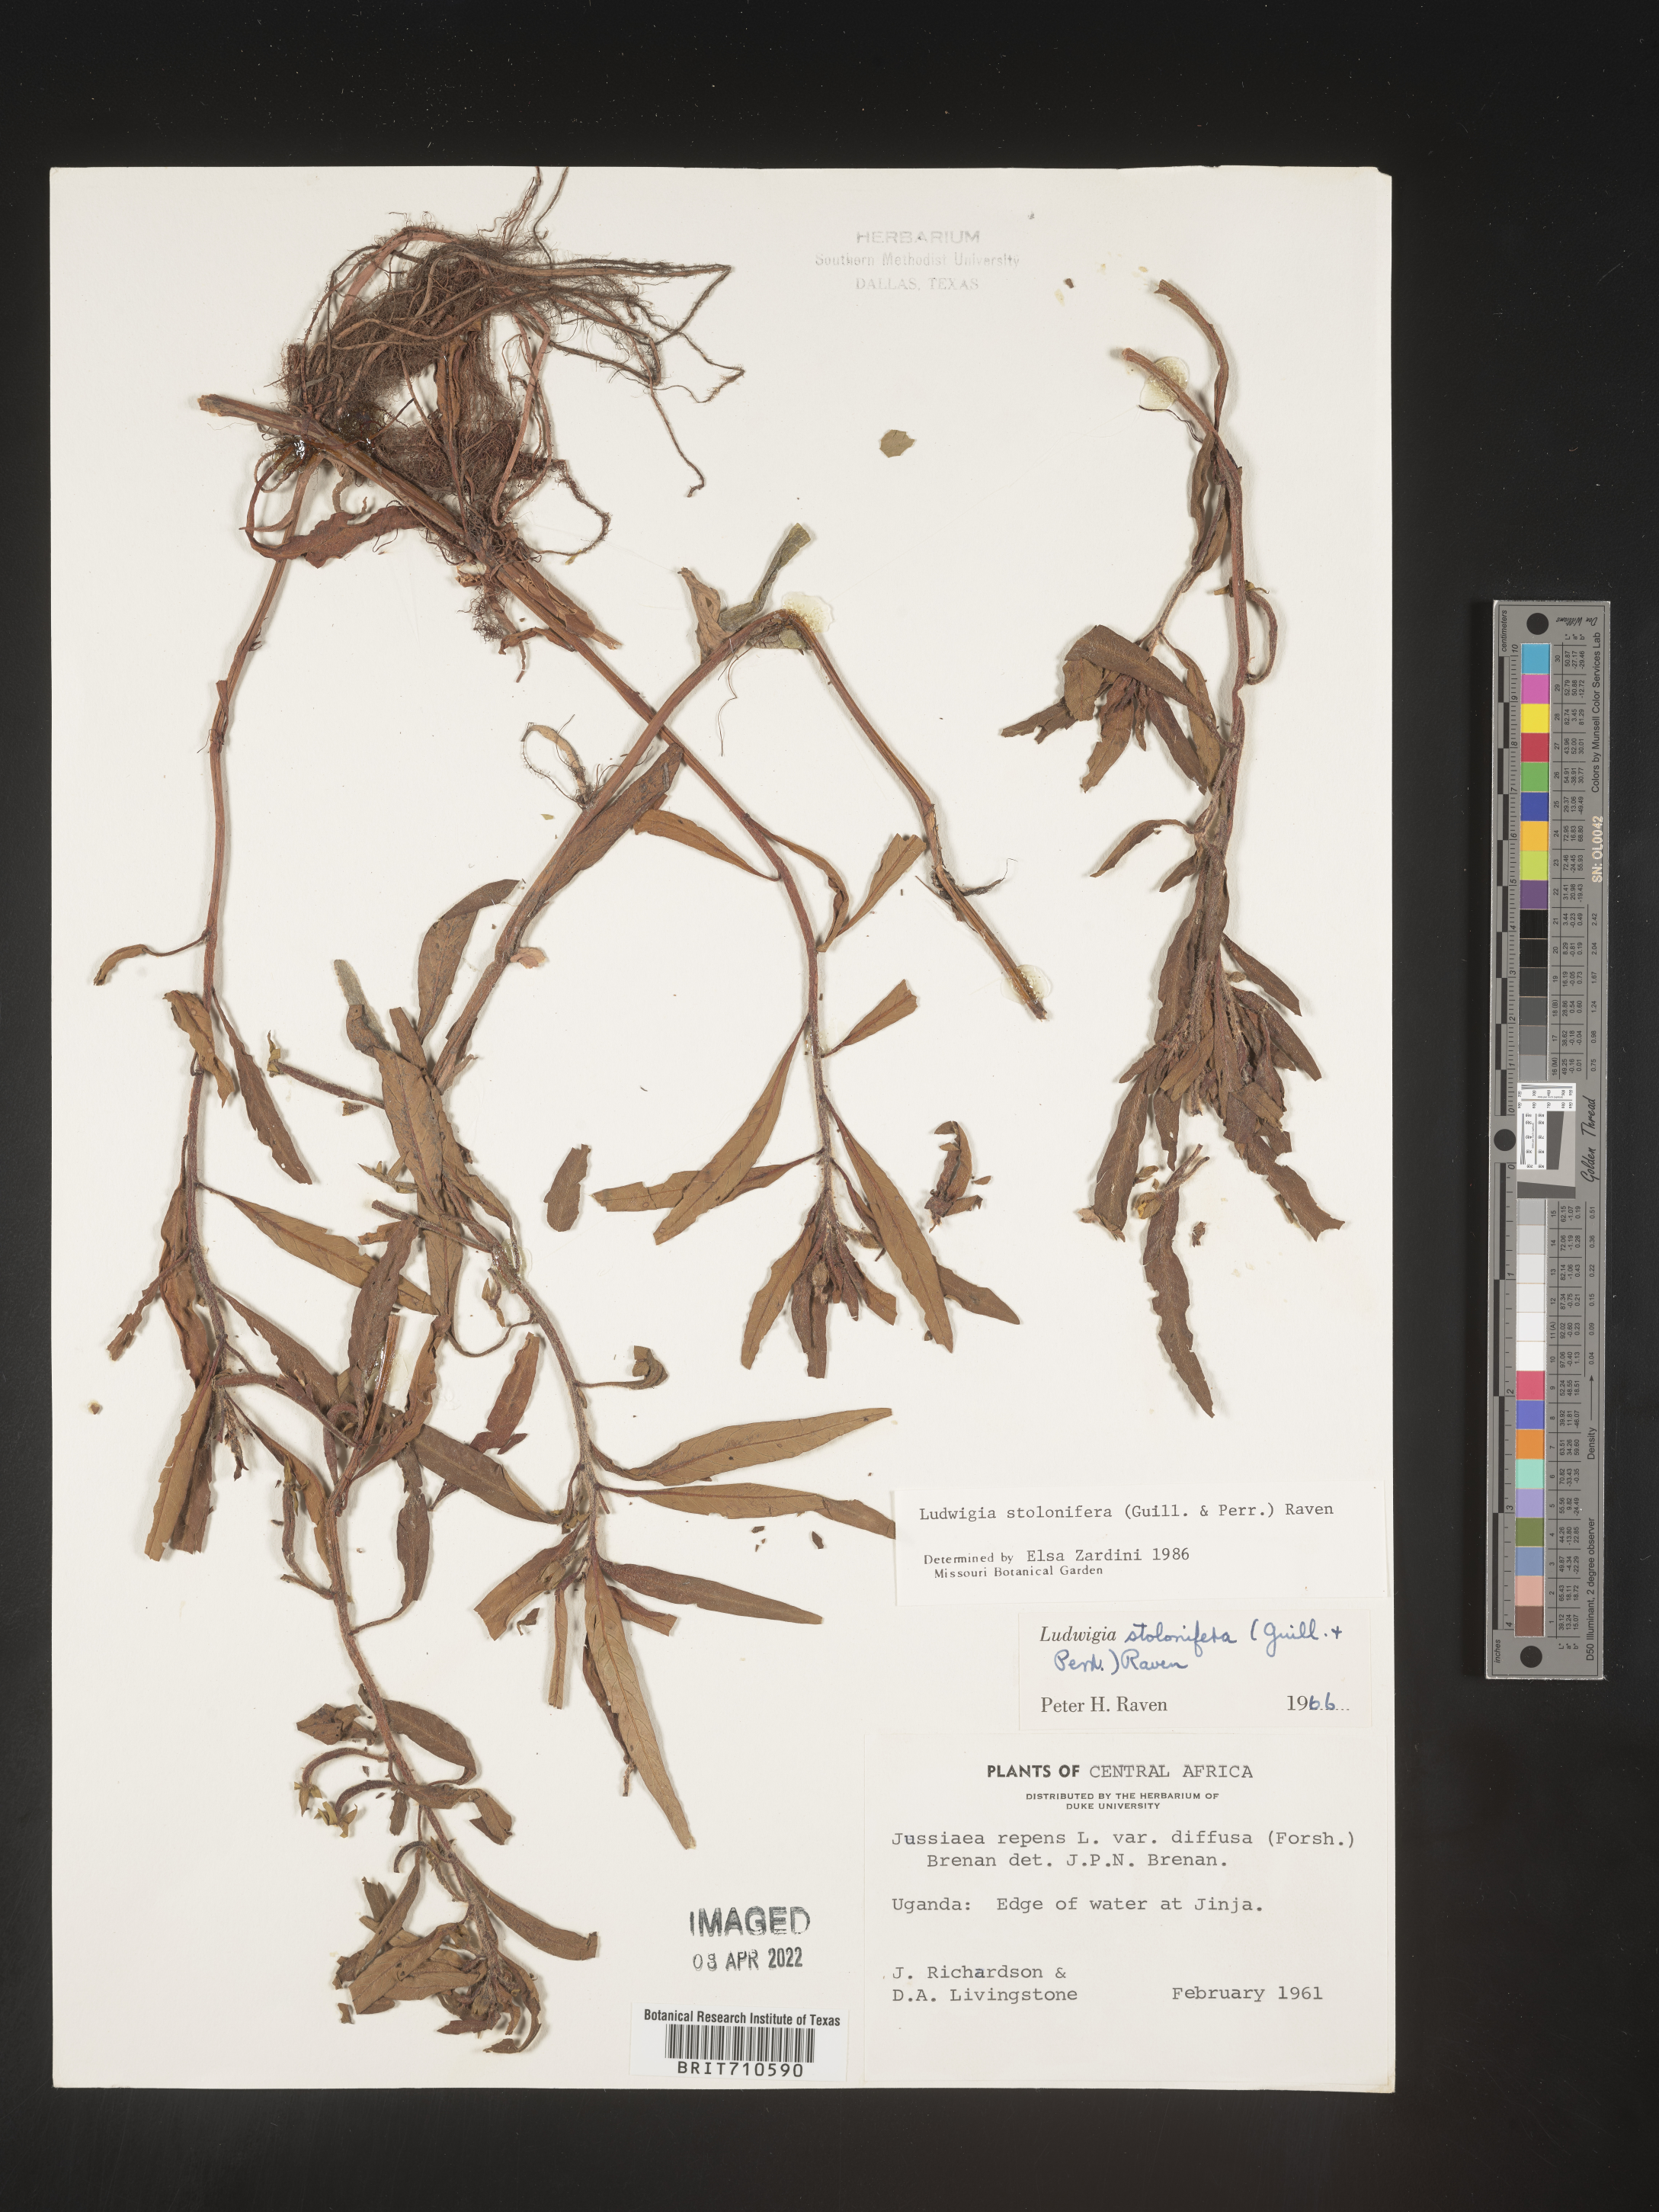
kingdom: Plantae
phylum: Tracheophyta
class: Magnoliopsida
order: Myrtales
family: Onagraceae
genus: Ludwigia
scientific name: Ludwigia
